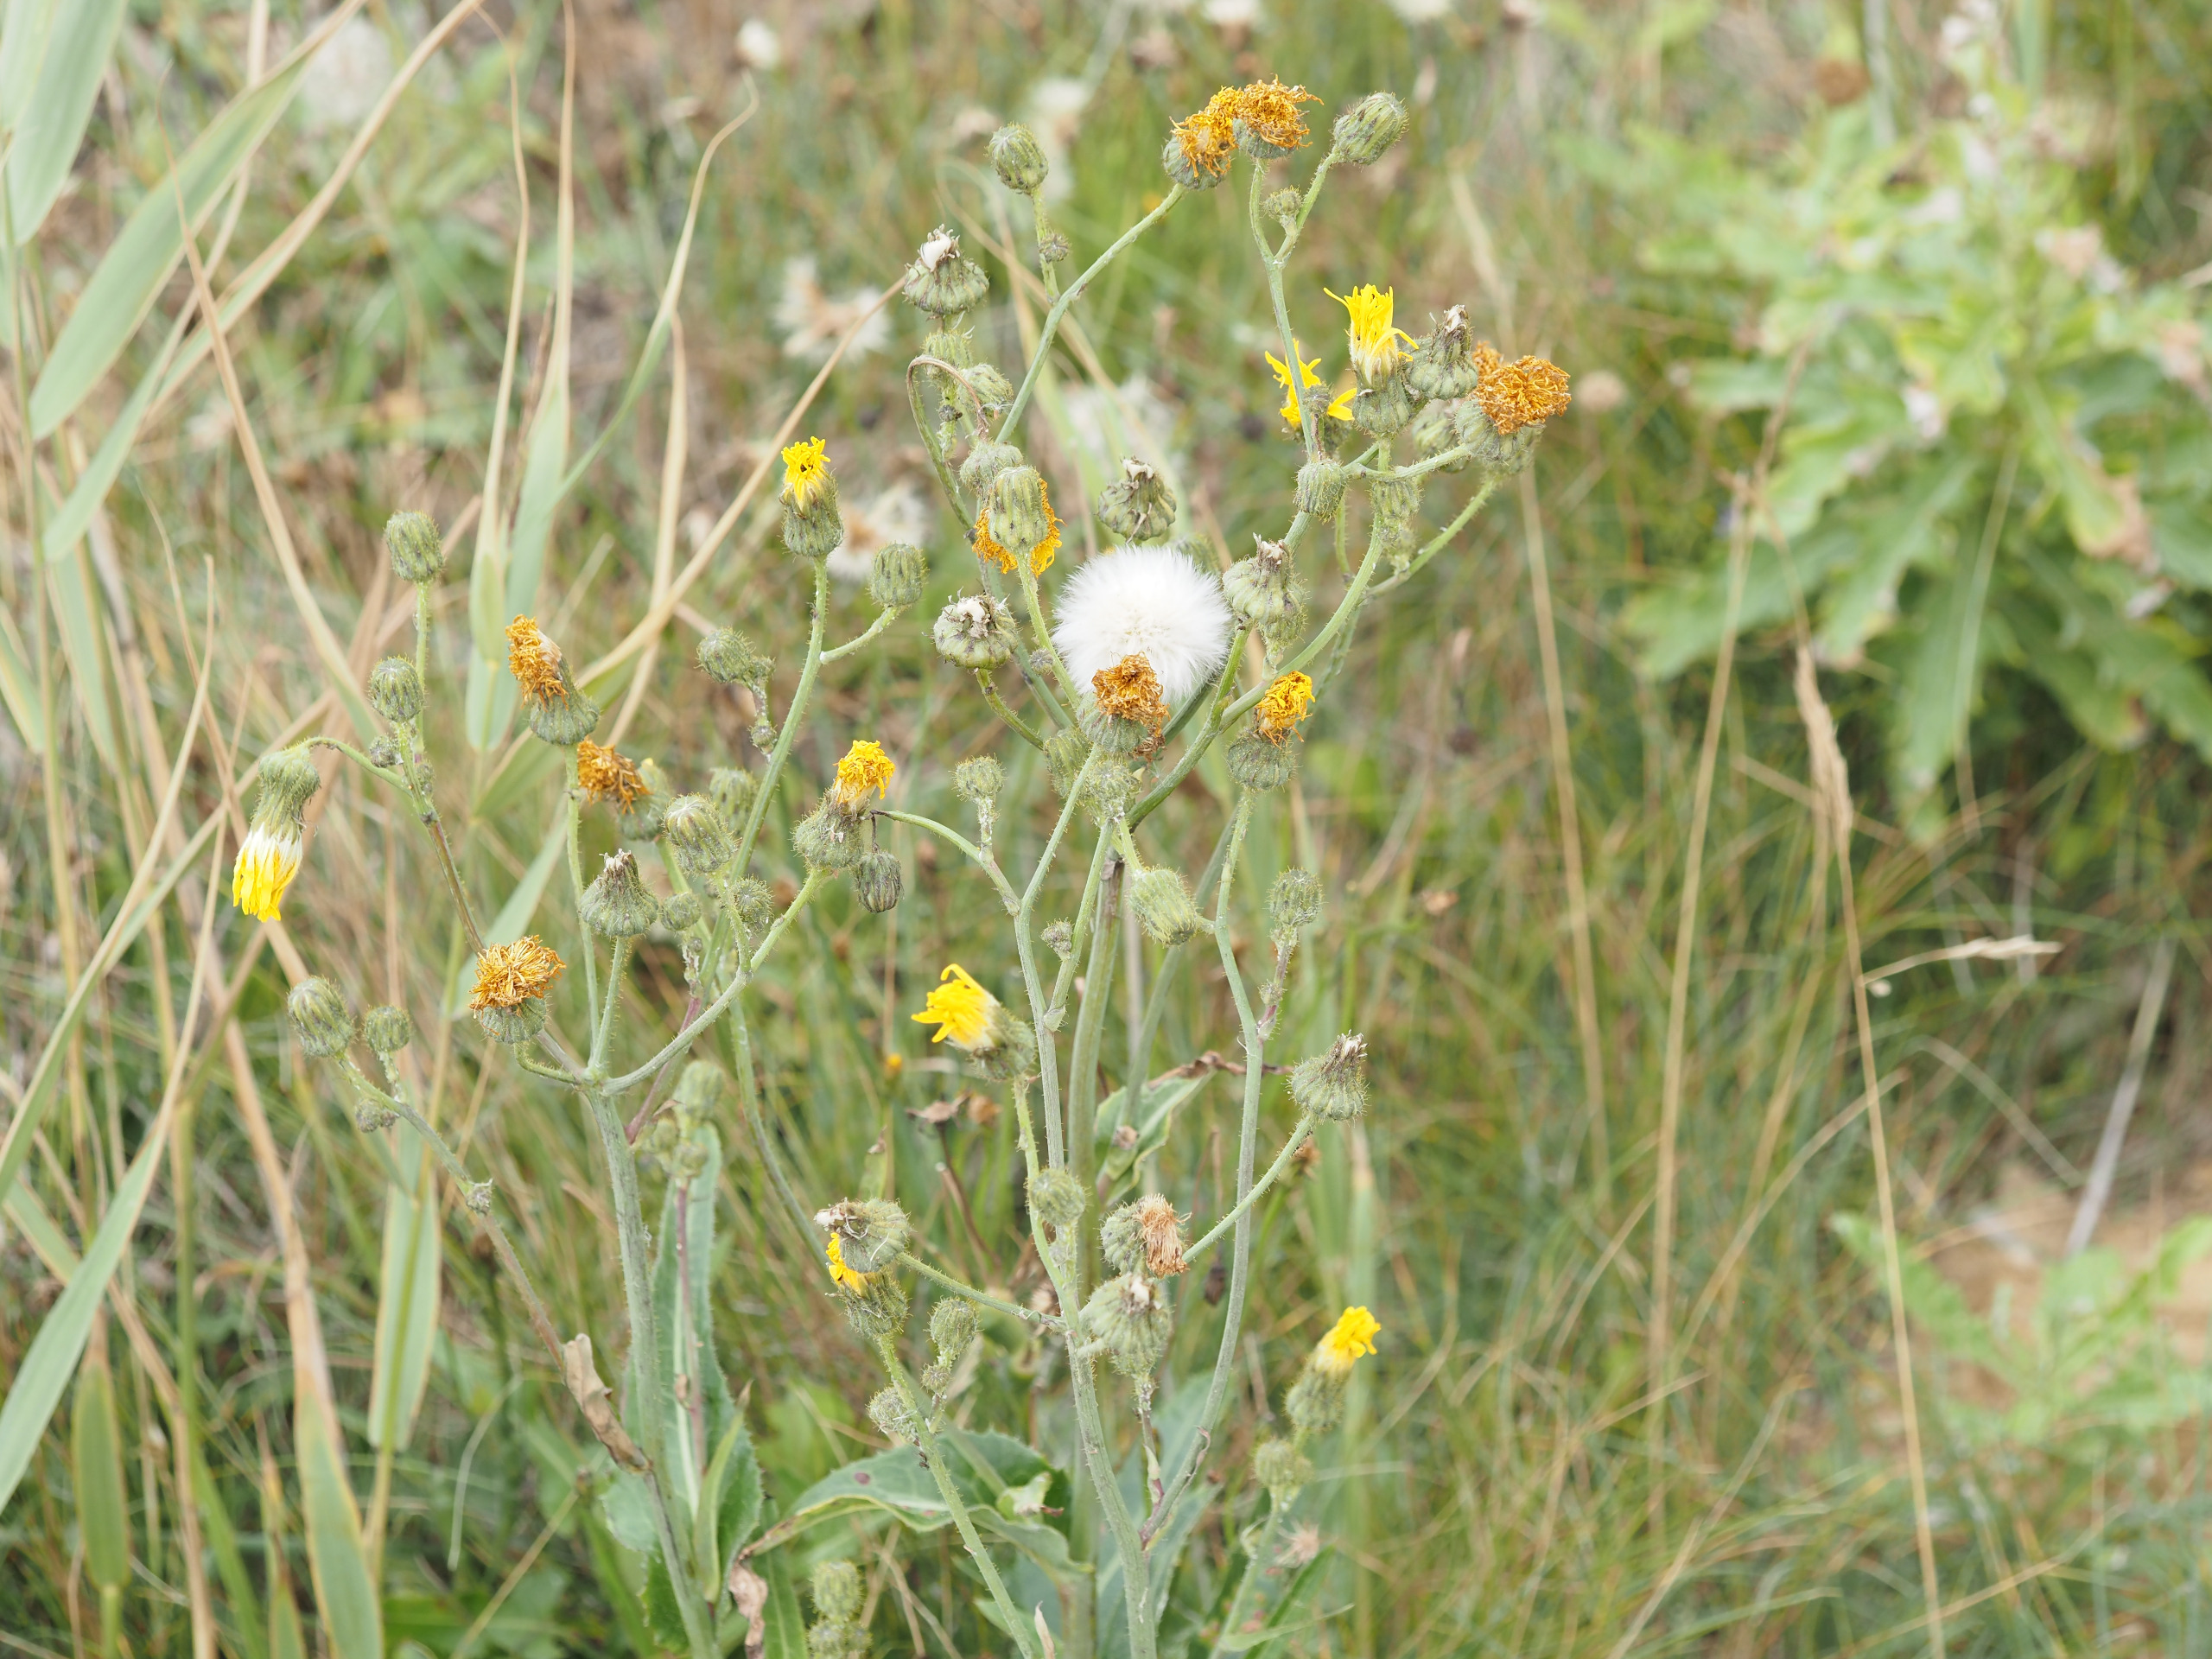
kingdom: Animalia
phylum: Arthropoda
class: Insecta
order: Diptera
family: Cecidomyiidae
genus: Cystiphora
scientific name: Cystiphora sonchi
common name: Svineblæregalmyg
